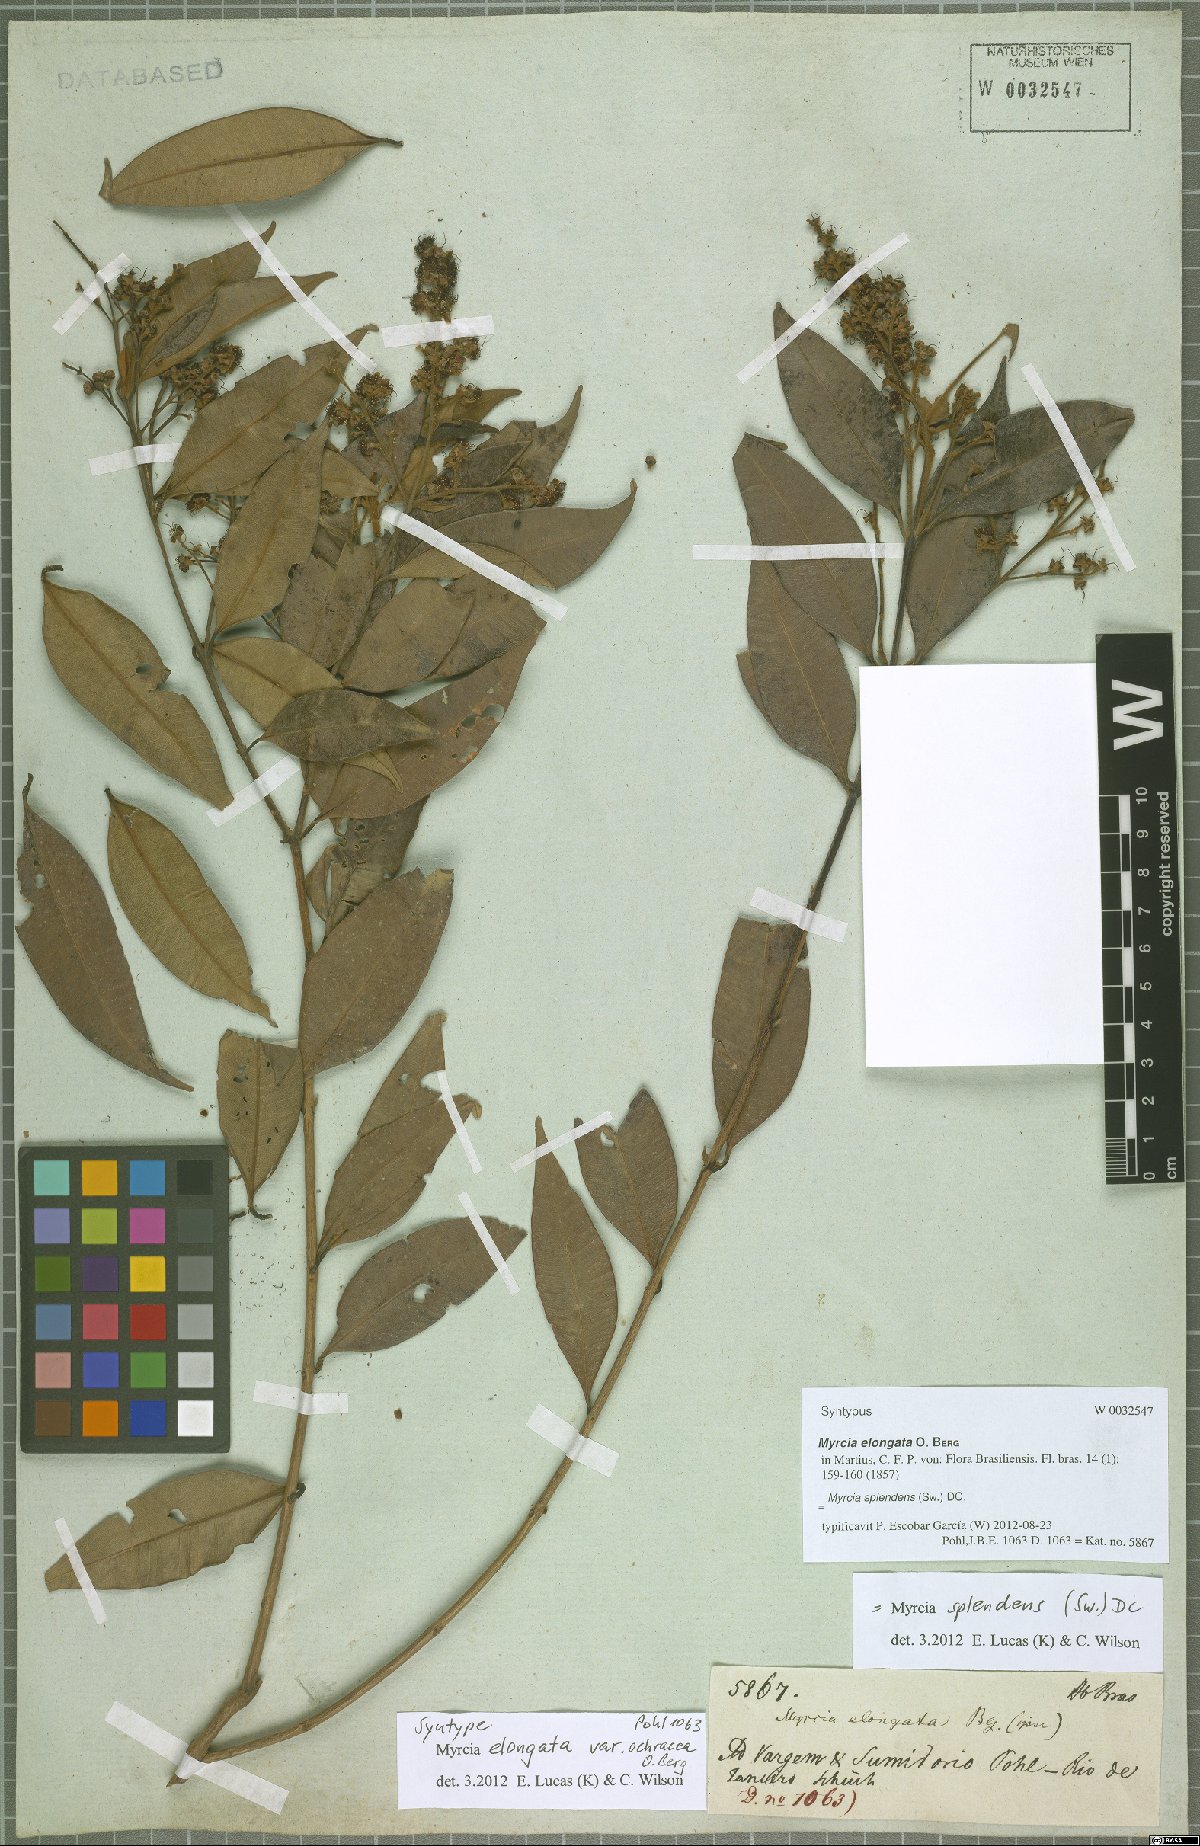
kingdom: Plantae
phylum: Tracheophyta
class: Magnoliopsida
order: Myrtales
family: Myrtaceae
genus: Myrcia
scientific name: Myrcia splendens
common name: Surinam cherry
